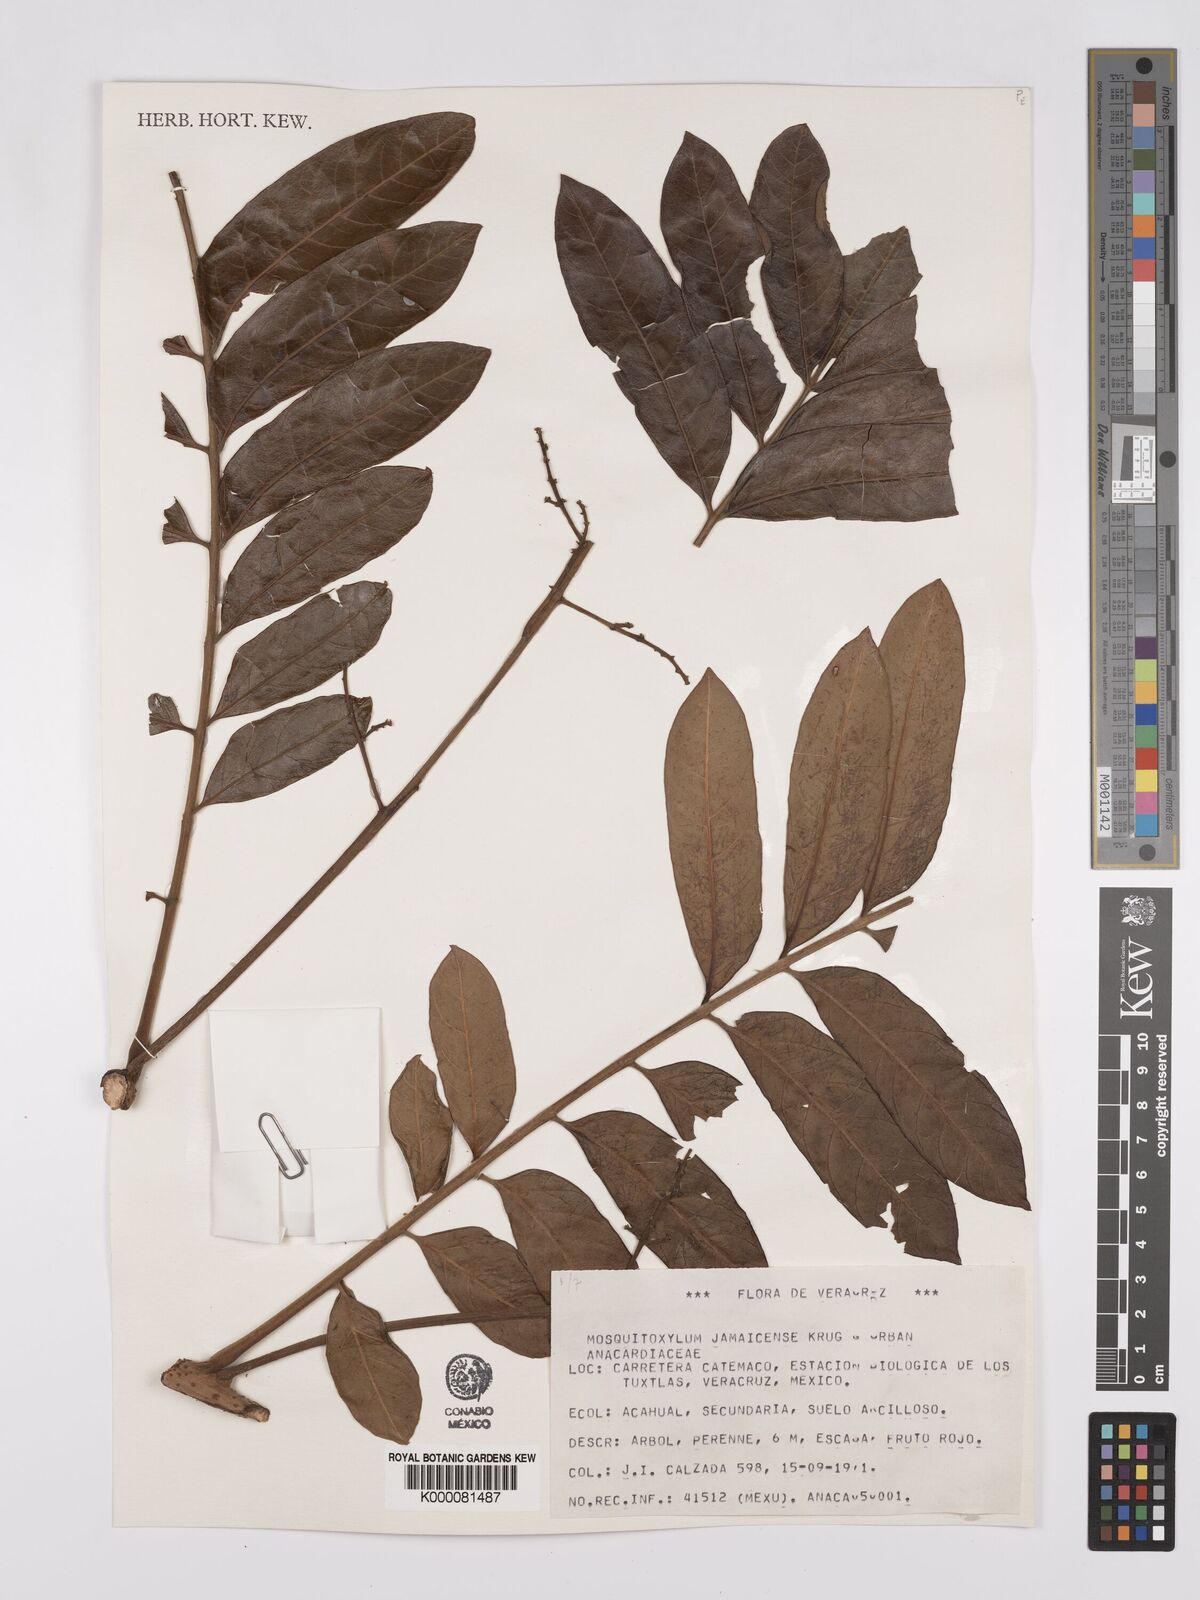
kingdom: Plantae
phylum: Tracheophyta
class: Magnoliopsida
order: Sapindales
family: Anacardiaceae
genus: Mosquitoxylum
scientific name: Mosquitoxylum jamaicense
